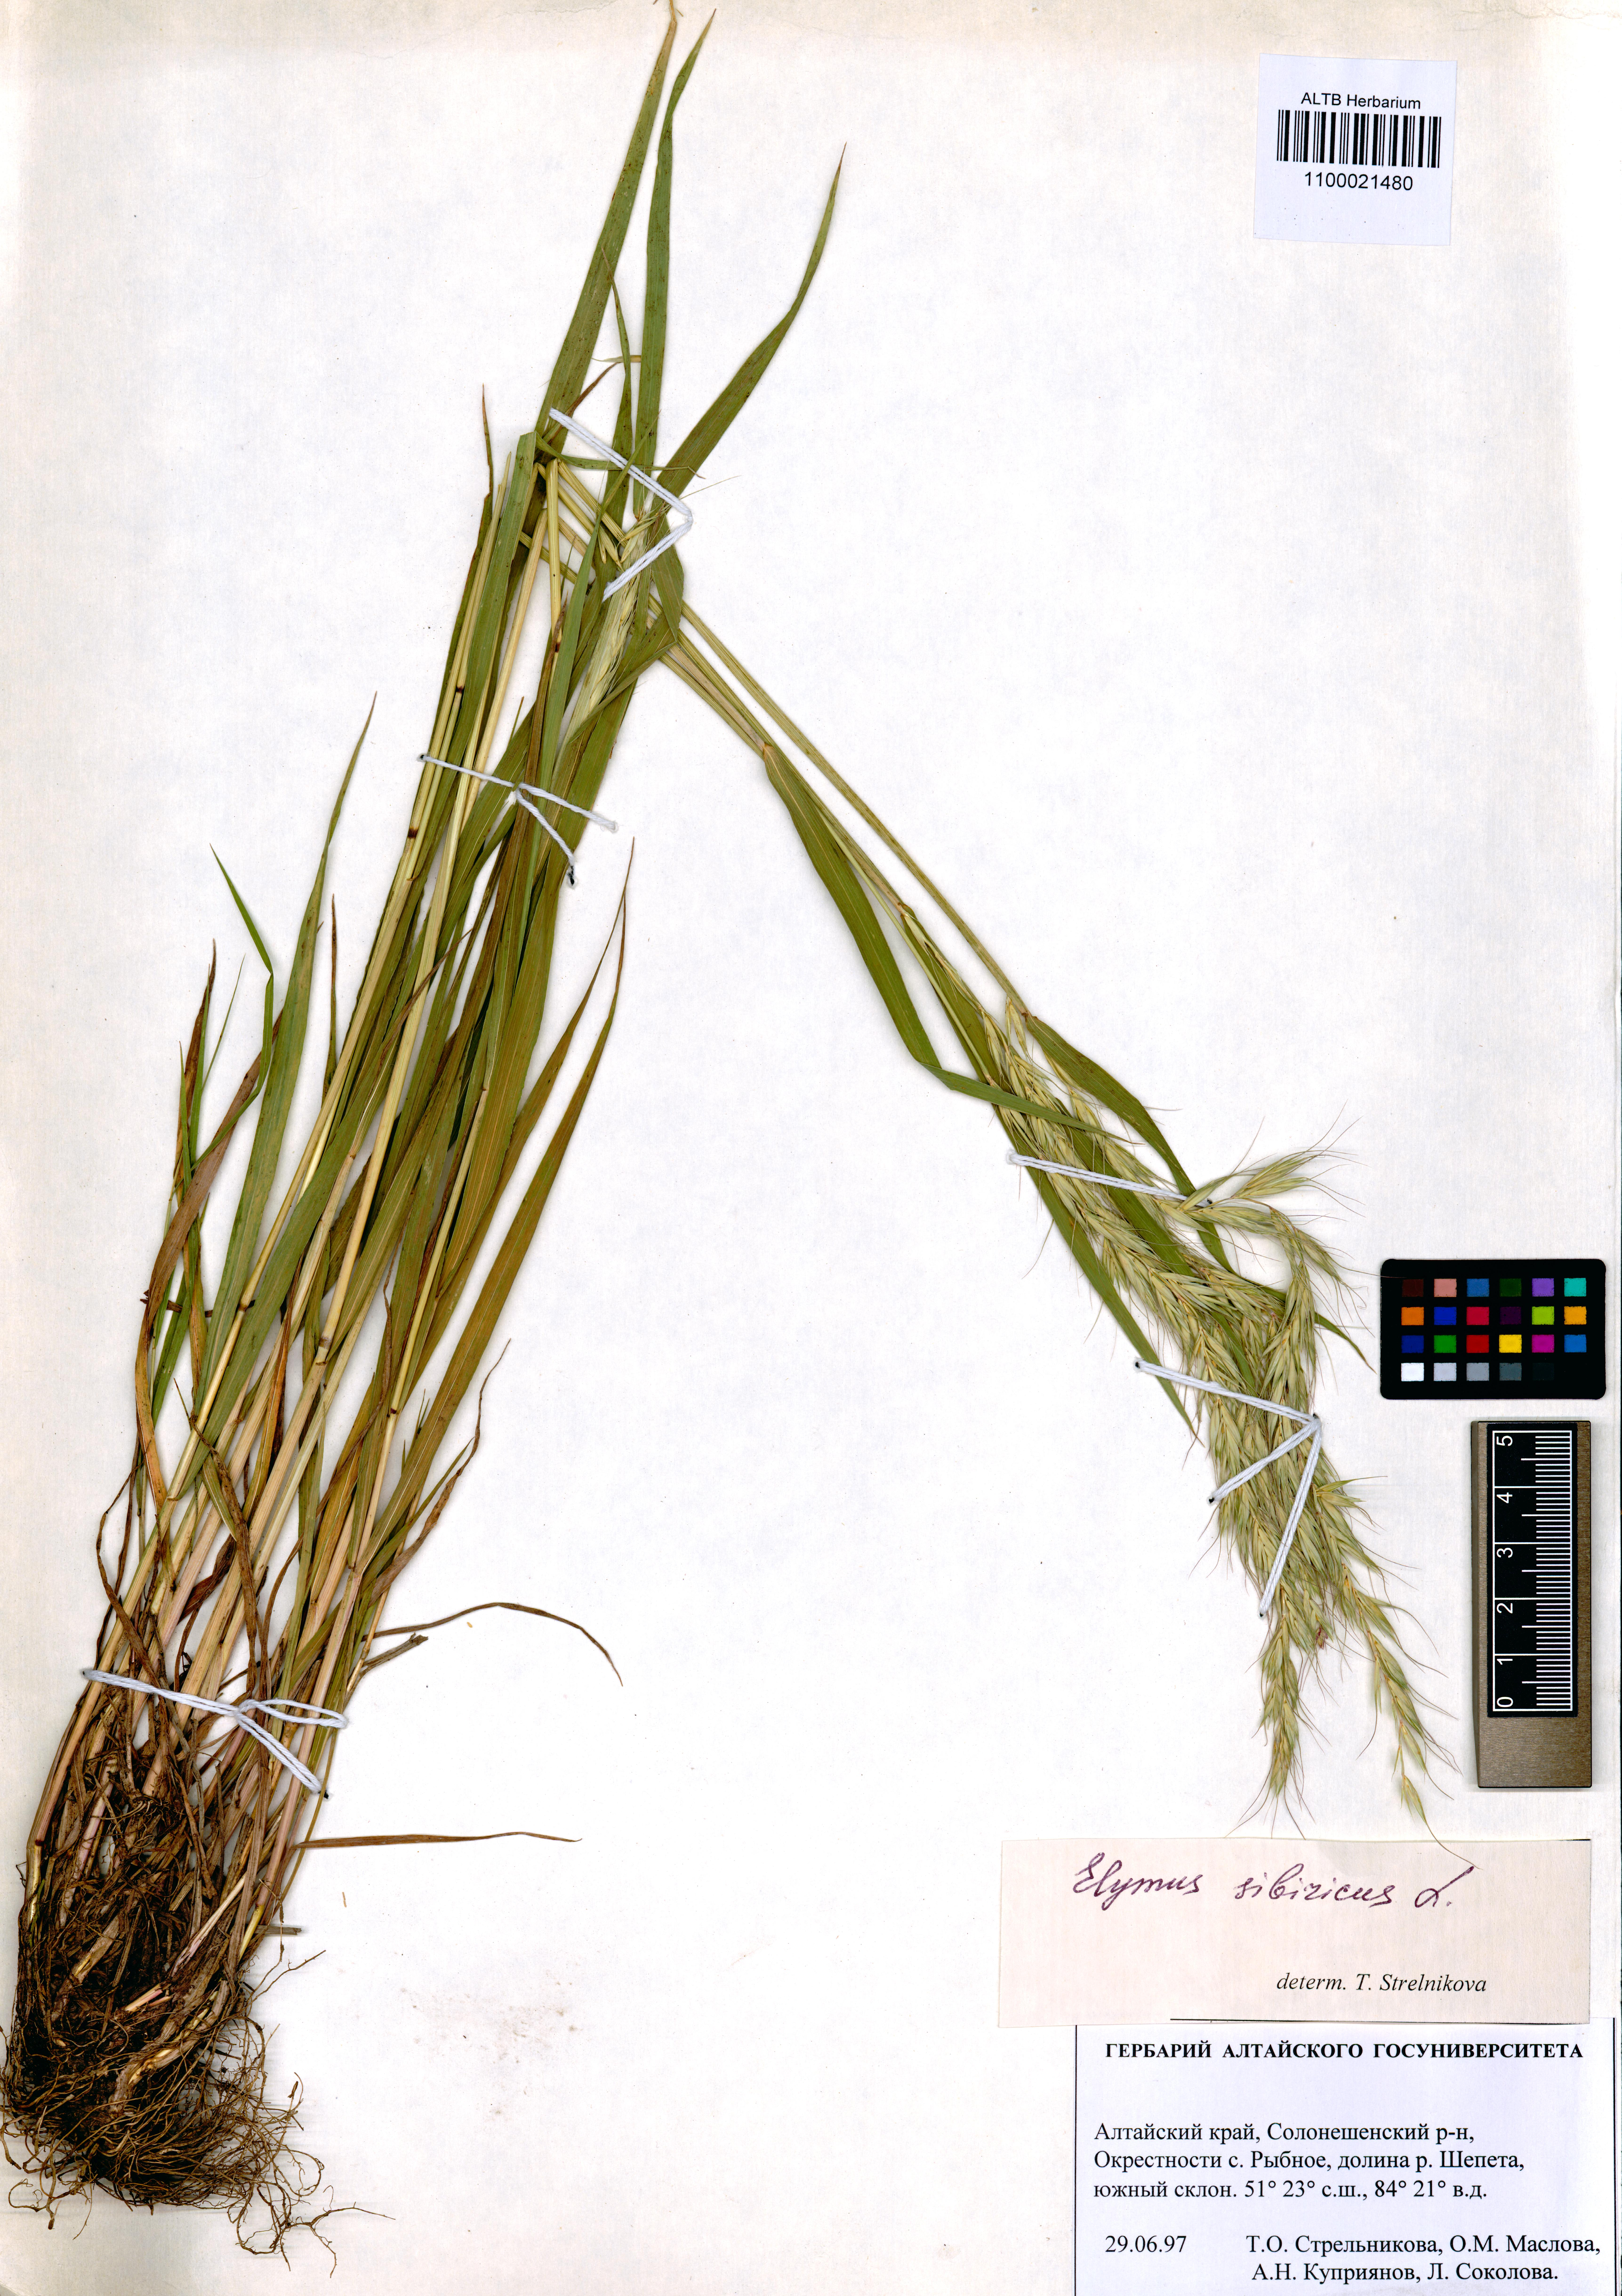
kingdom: Plantae
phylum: Tracheophyta
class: Liliopsida
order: Poales
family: Poaceae
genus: Elymus
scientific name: Elymus sibiricus
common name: Siberian wildrye
